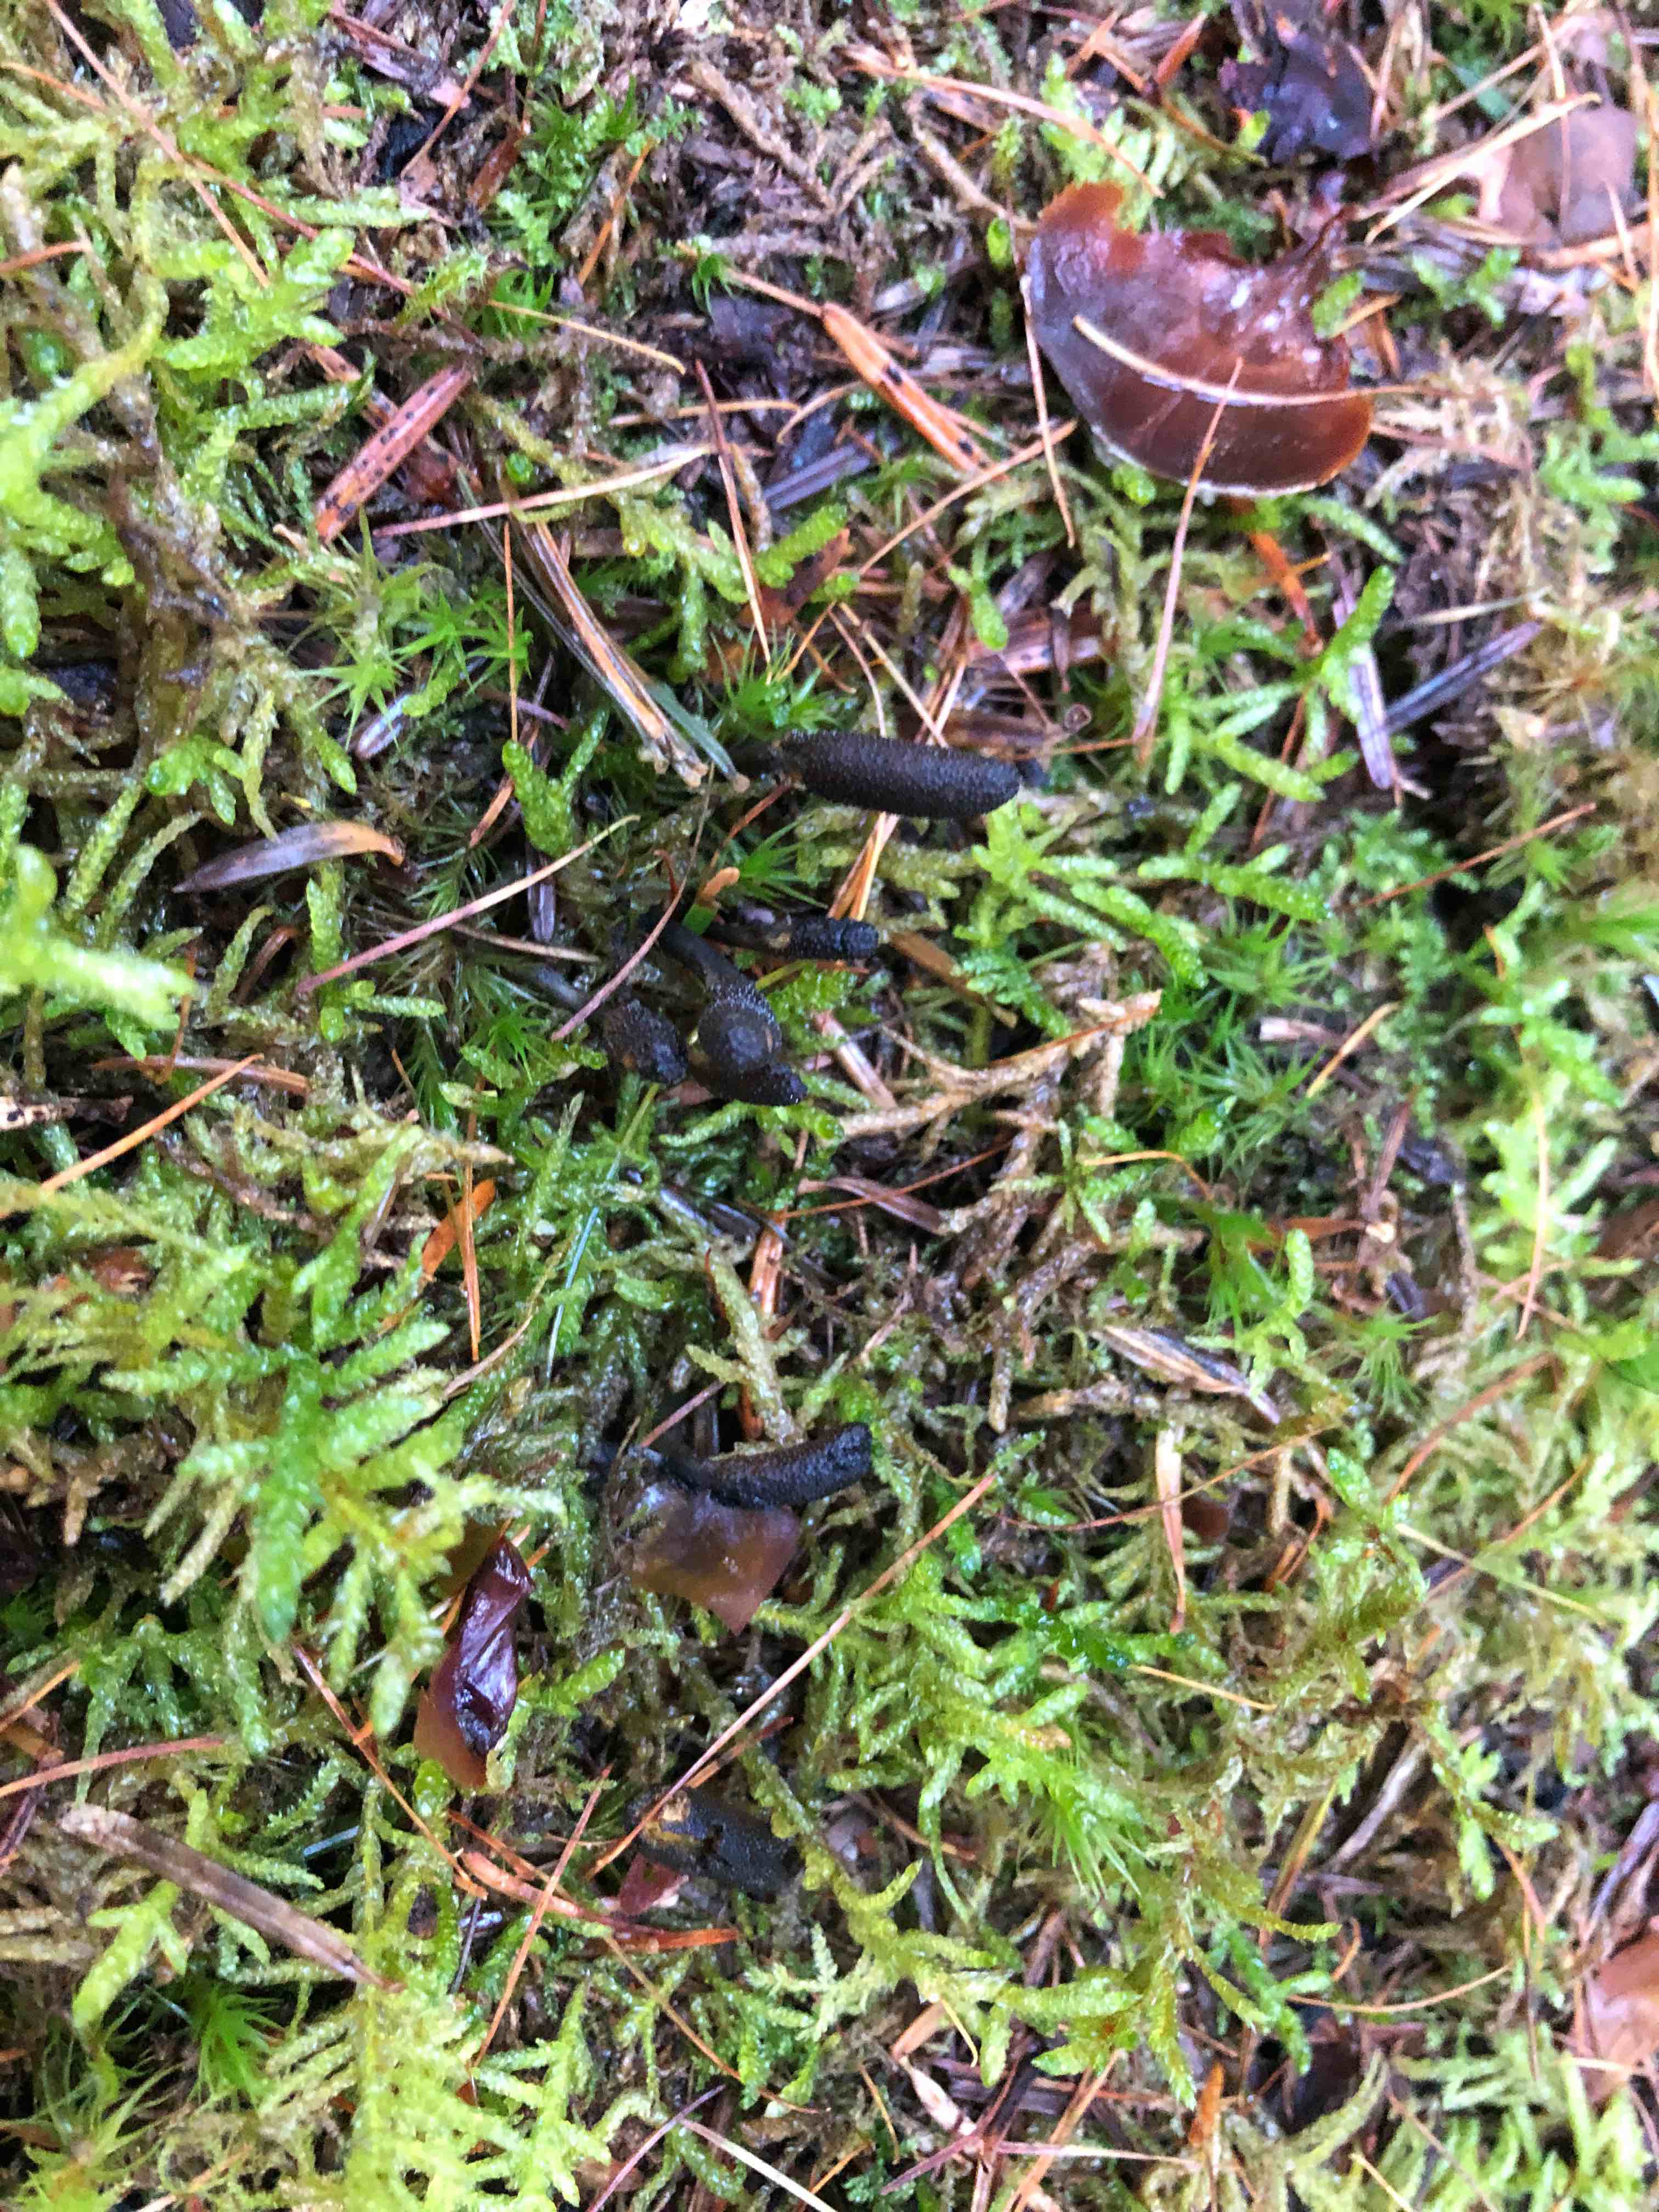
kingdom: Fungi
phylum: Ascomycota
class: Sordariomycetes
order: Hypocreales
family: Ophiocordycipitaceae
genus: Tolypocladium
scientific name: Tolypocladium ophioglossoides
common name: slank snyltekølle
